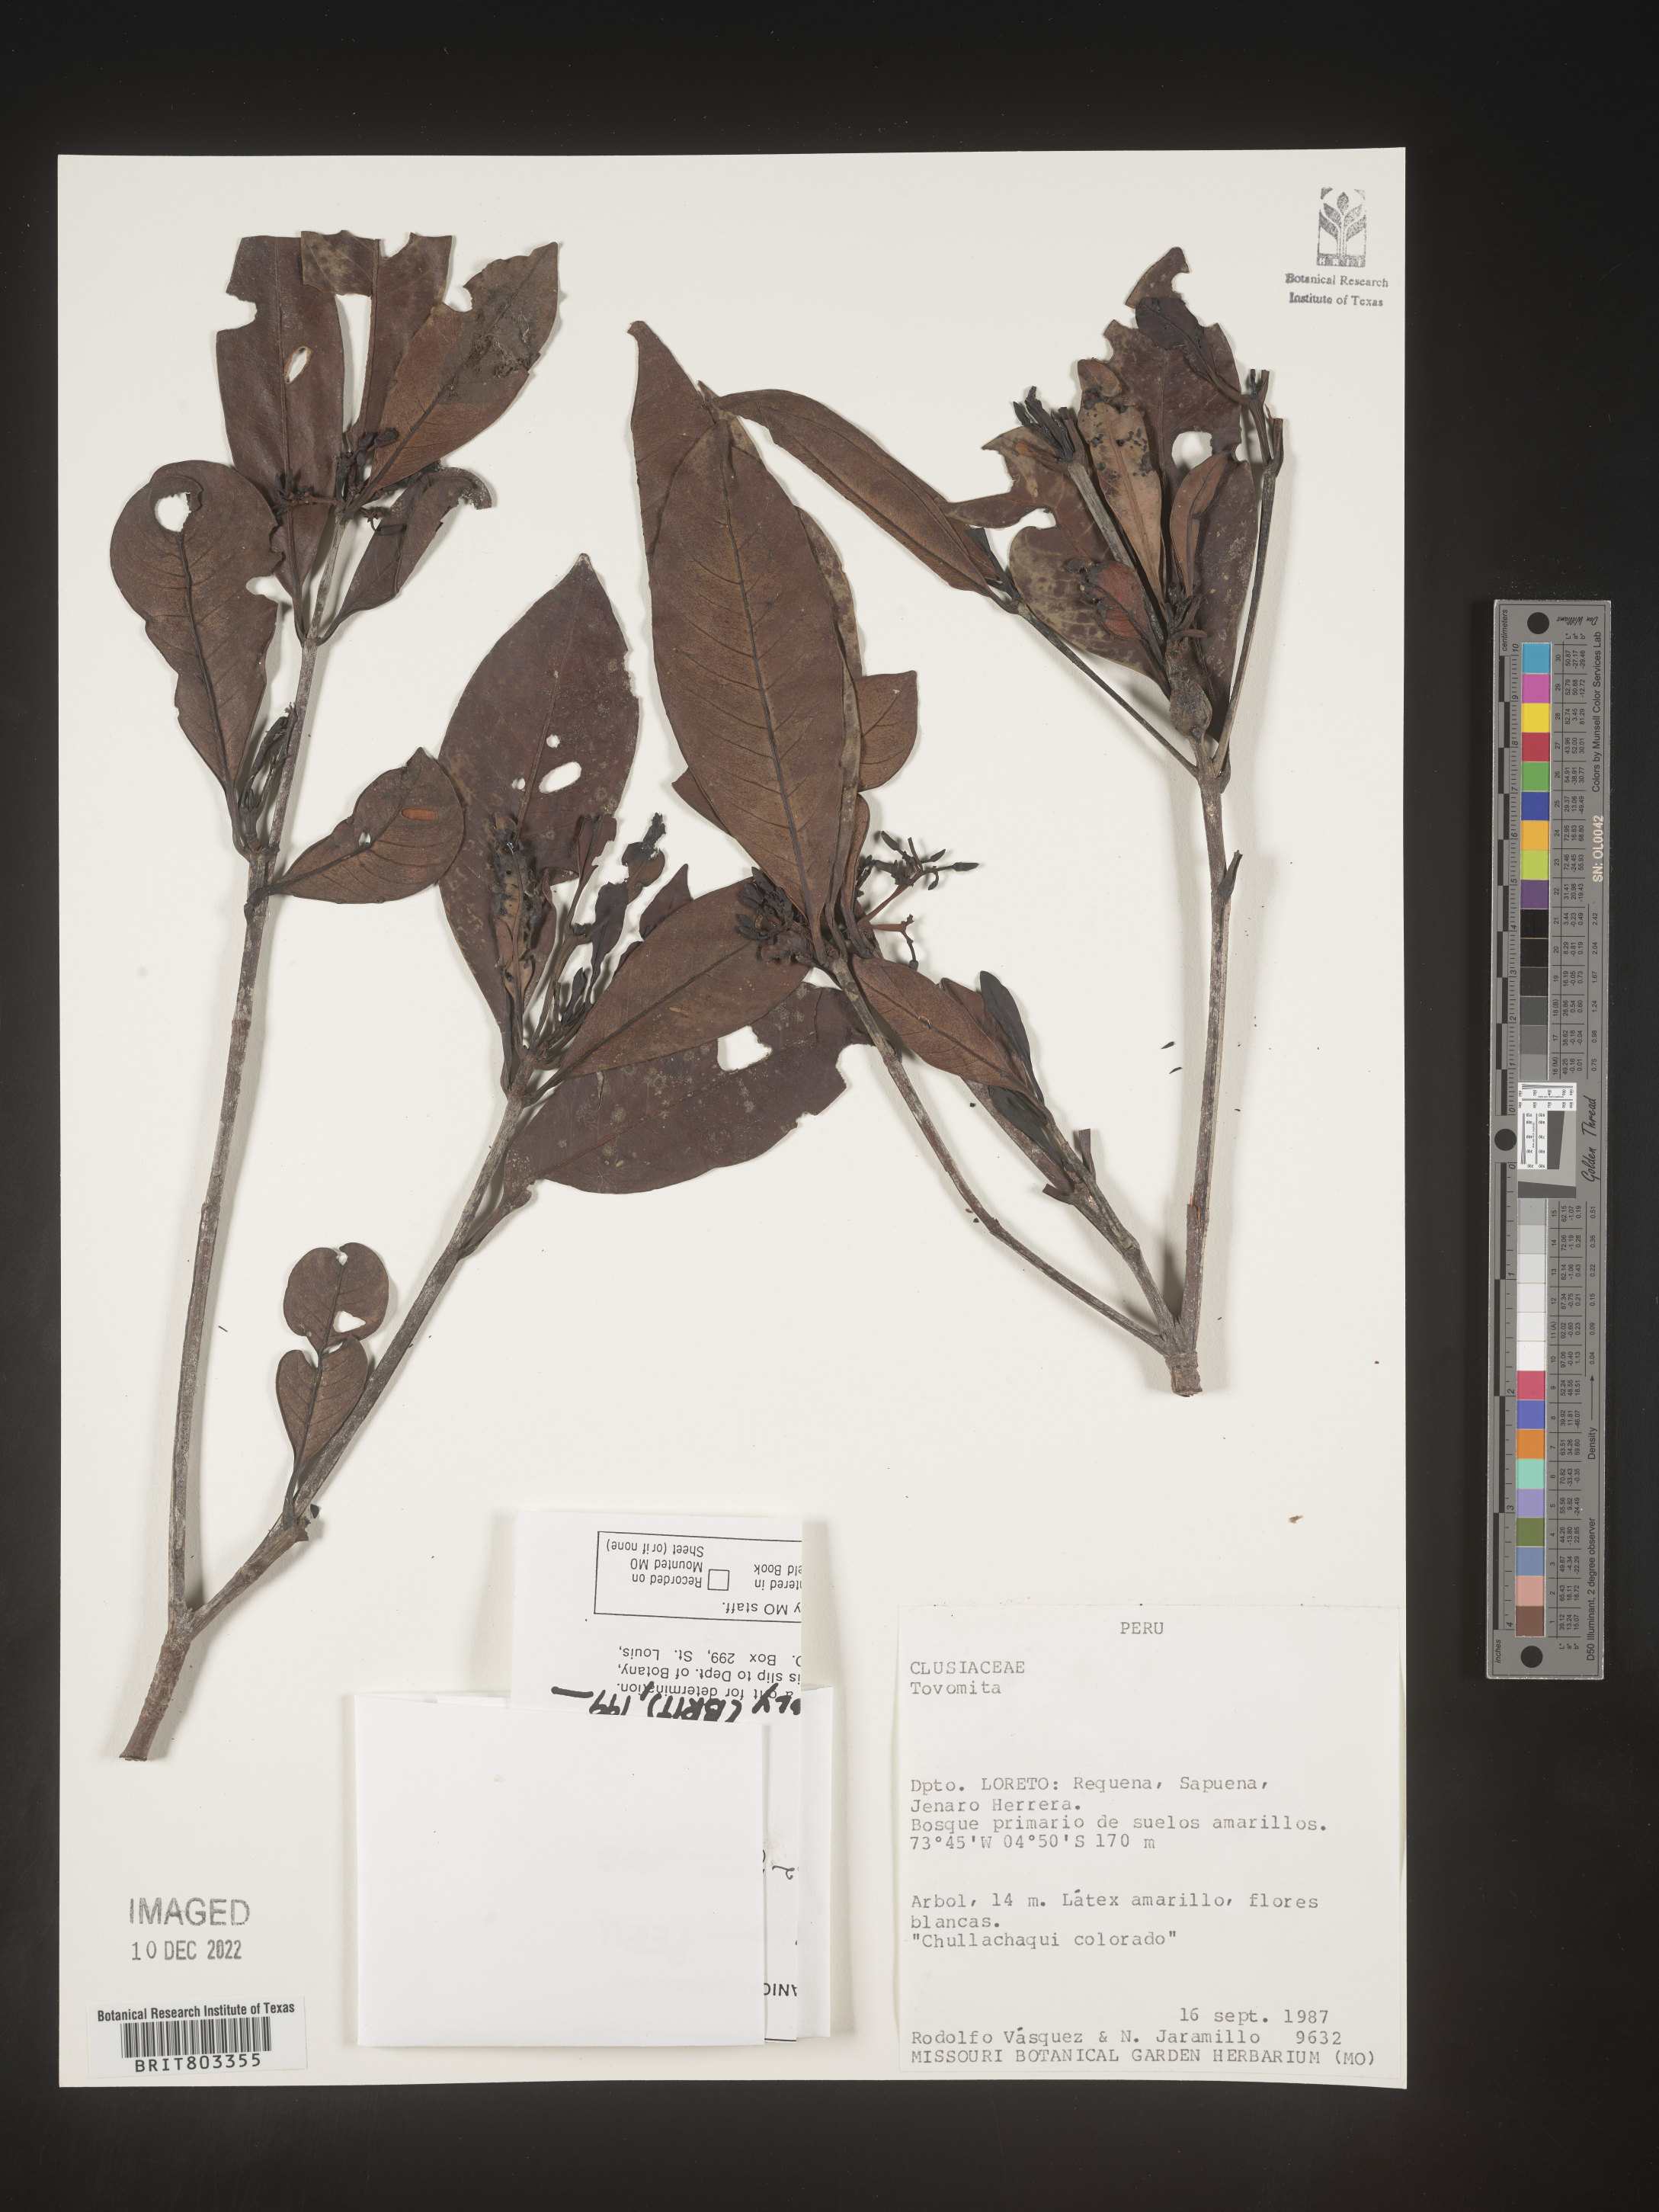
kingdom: Plantae
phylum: Tracheophyta
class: Magnoliopsida
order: Malpighiales
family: Clusiaceae
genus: Tovomita
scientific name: Tovomita
